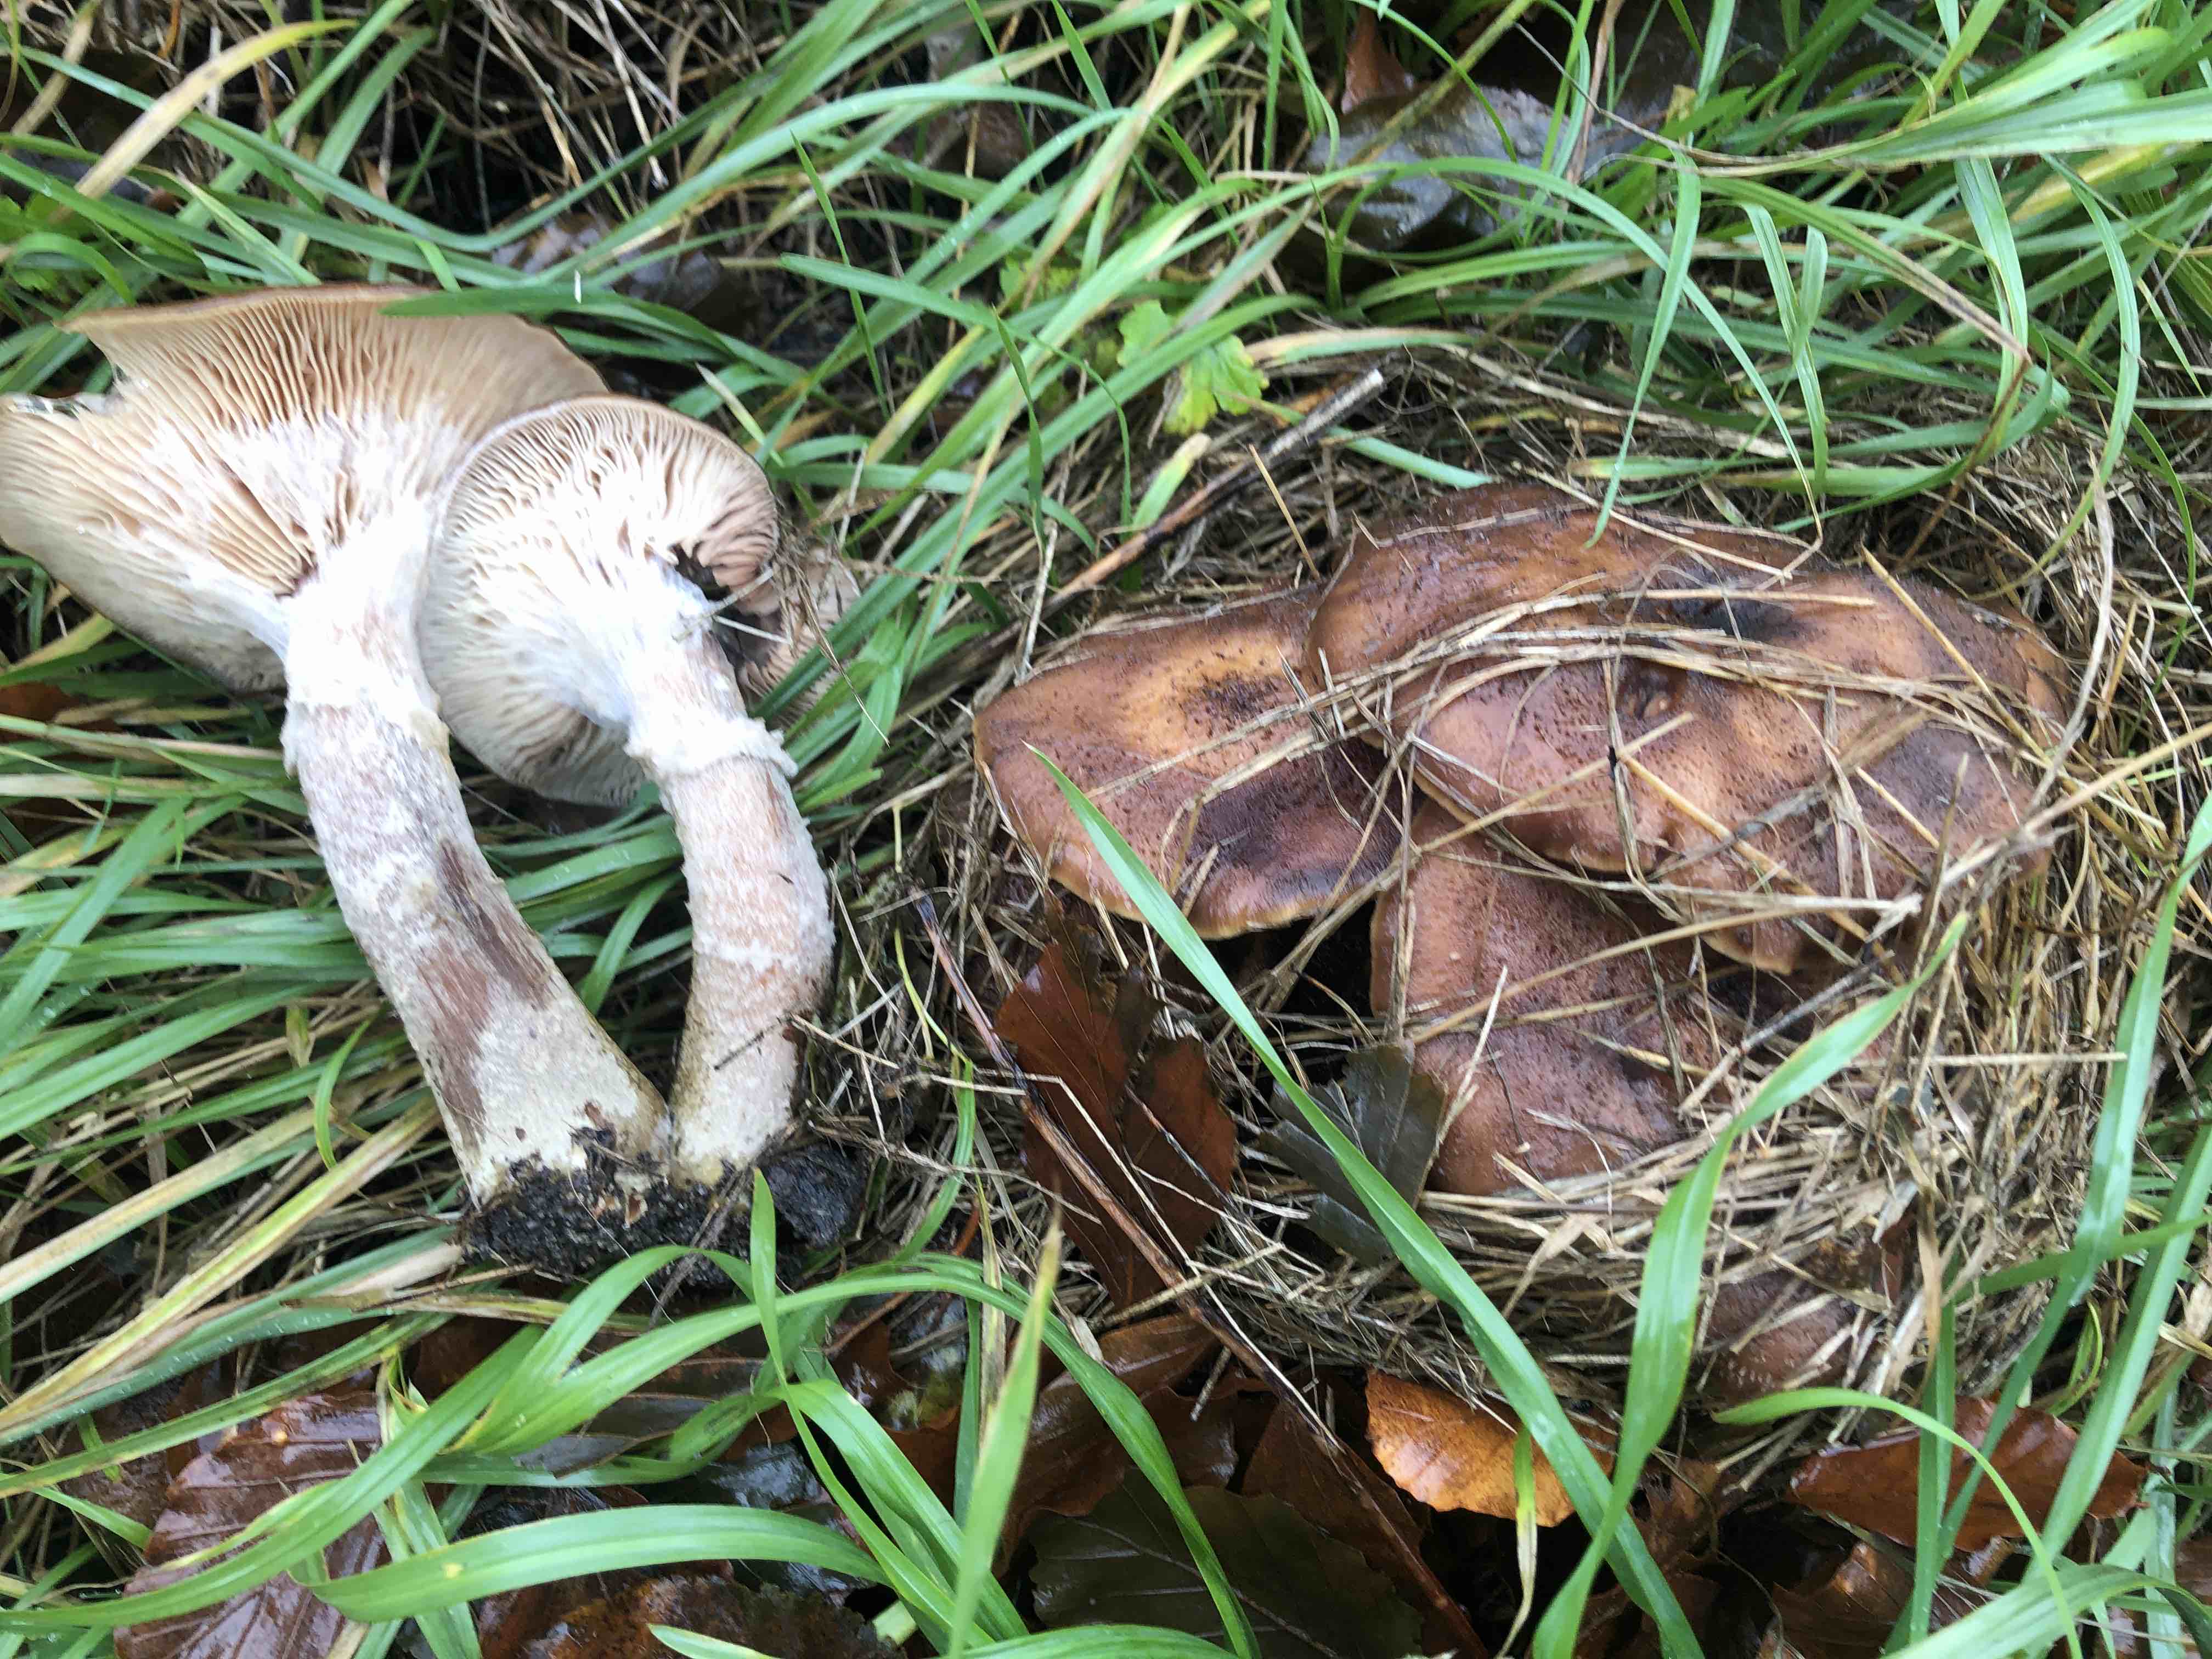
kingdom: Fungi
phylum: Basidiomycota
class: Agaricomycetes
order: Agaricales
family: Physalacriaceae
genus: Armillaria
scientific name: Armillaria lutea
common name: køllestokket honningsvamp
